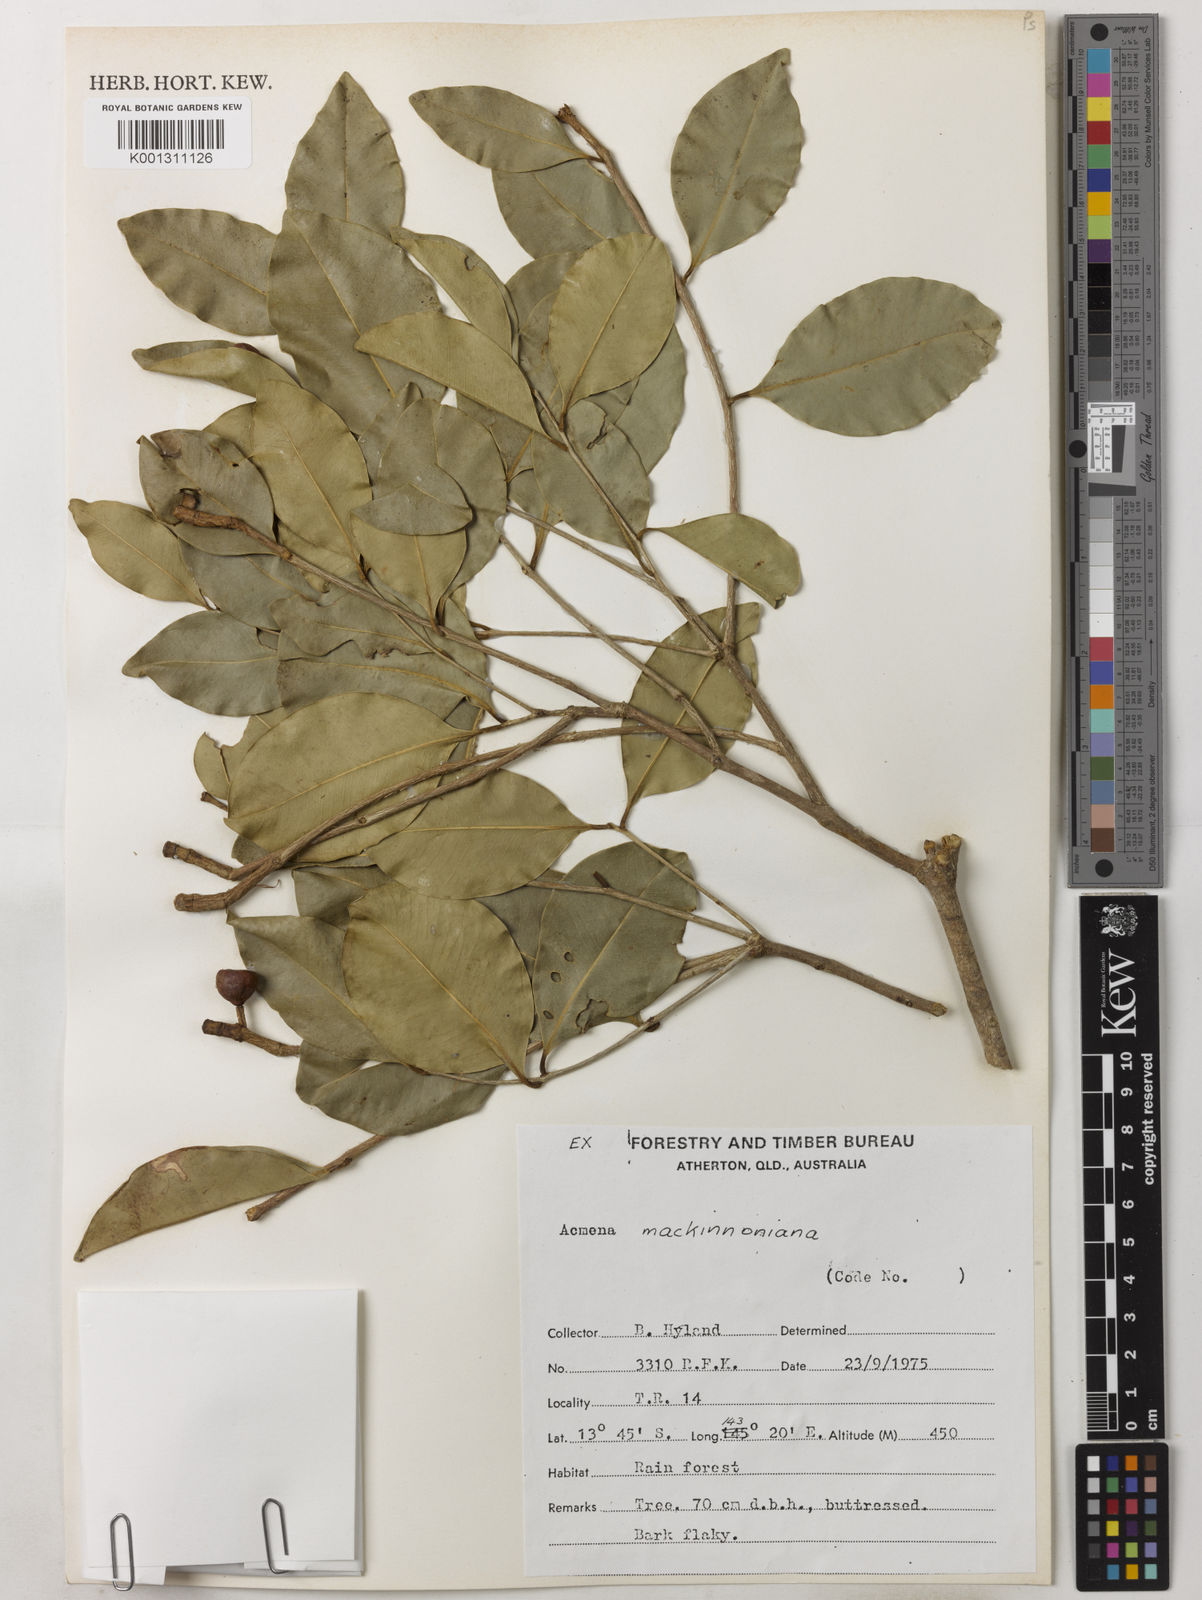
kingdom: Plantae
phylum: Tracheophyta
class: Magnoliopsida
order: Myrtales
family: Myrtaceae
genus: Syzygium
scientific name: Syzygium mackinnonianum
